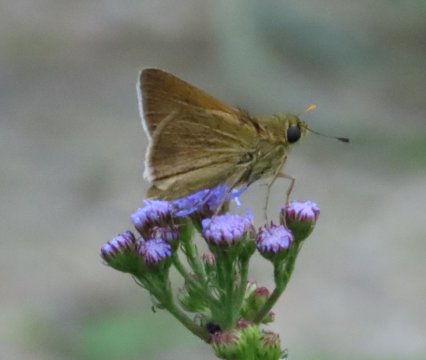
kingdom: Animalia
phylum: Arthropoda
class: Insecta
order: Lepidoptera
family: Hesperiidae
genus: Polites
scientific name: Polites themistocles
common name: Tawny-edged Skipper
